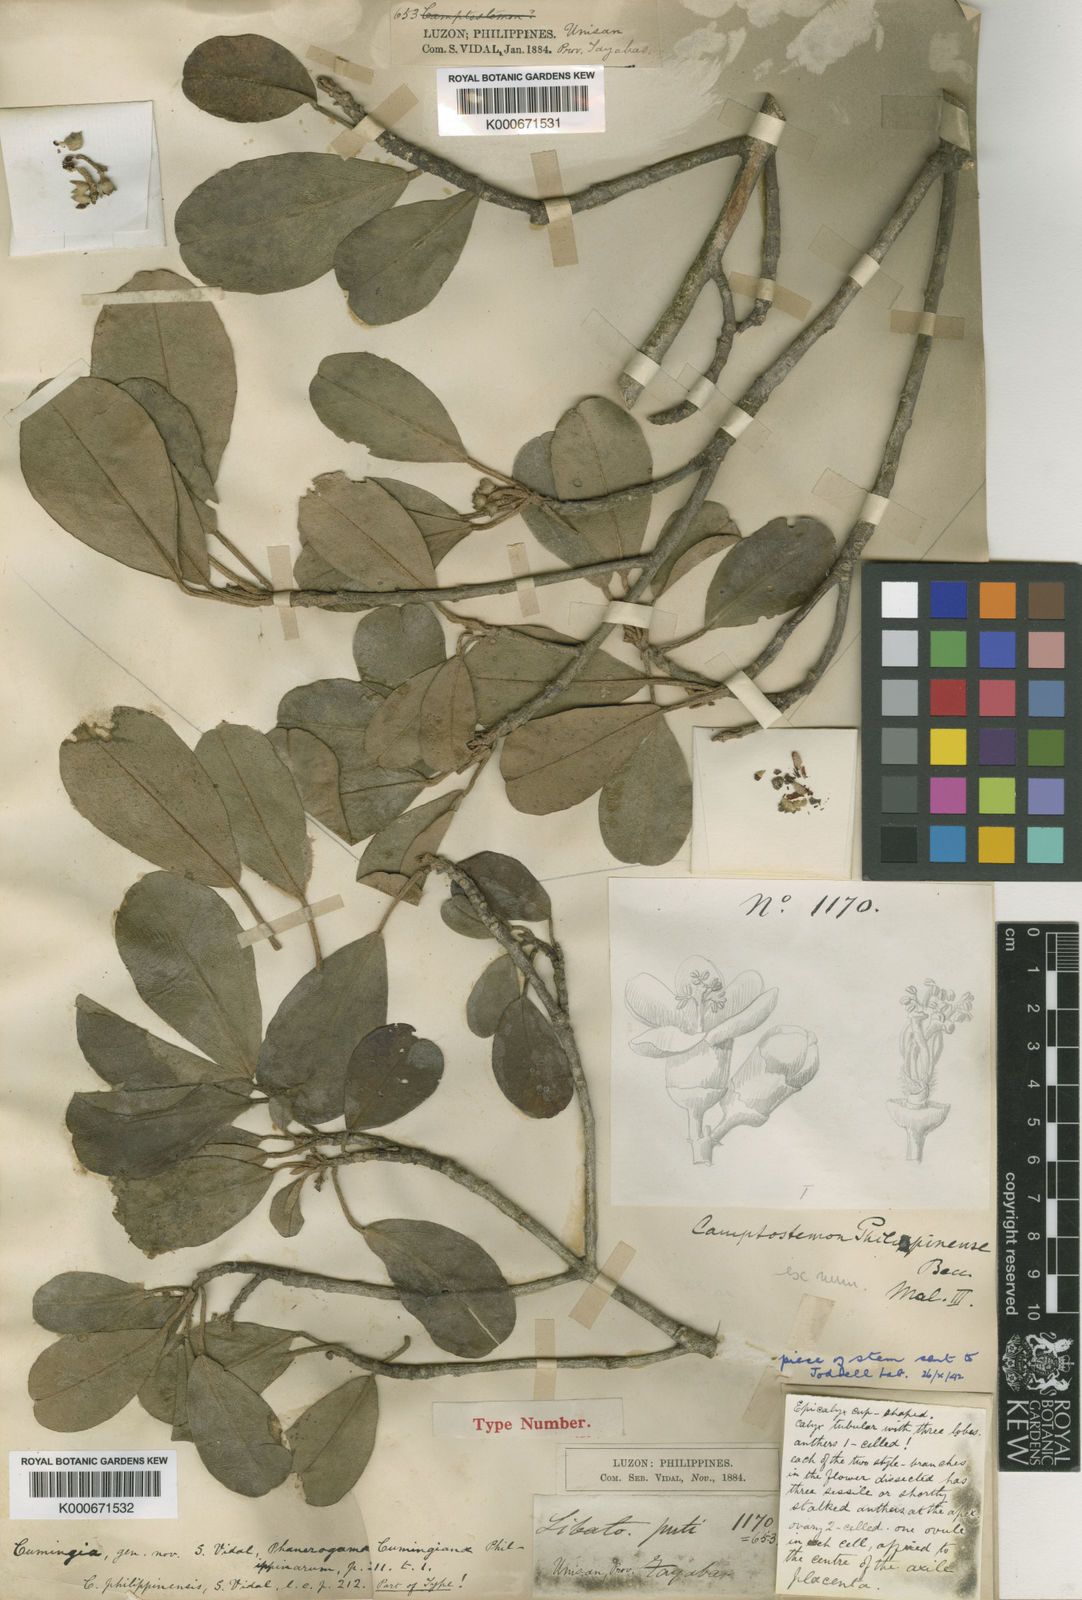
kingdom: Plantae
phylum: Tracheophyta
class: Magnoliopsida
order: Malvales
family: Malvaceae
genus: Camptostemon
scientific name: Camptostemon
